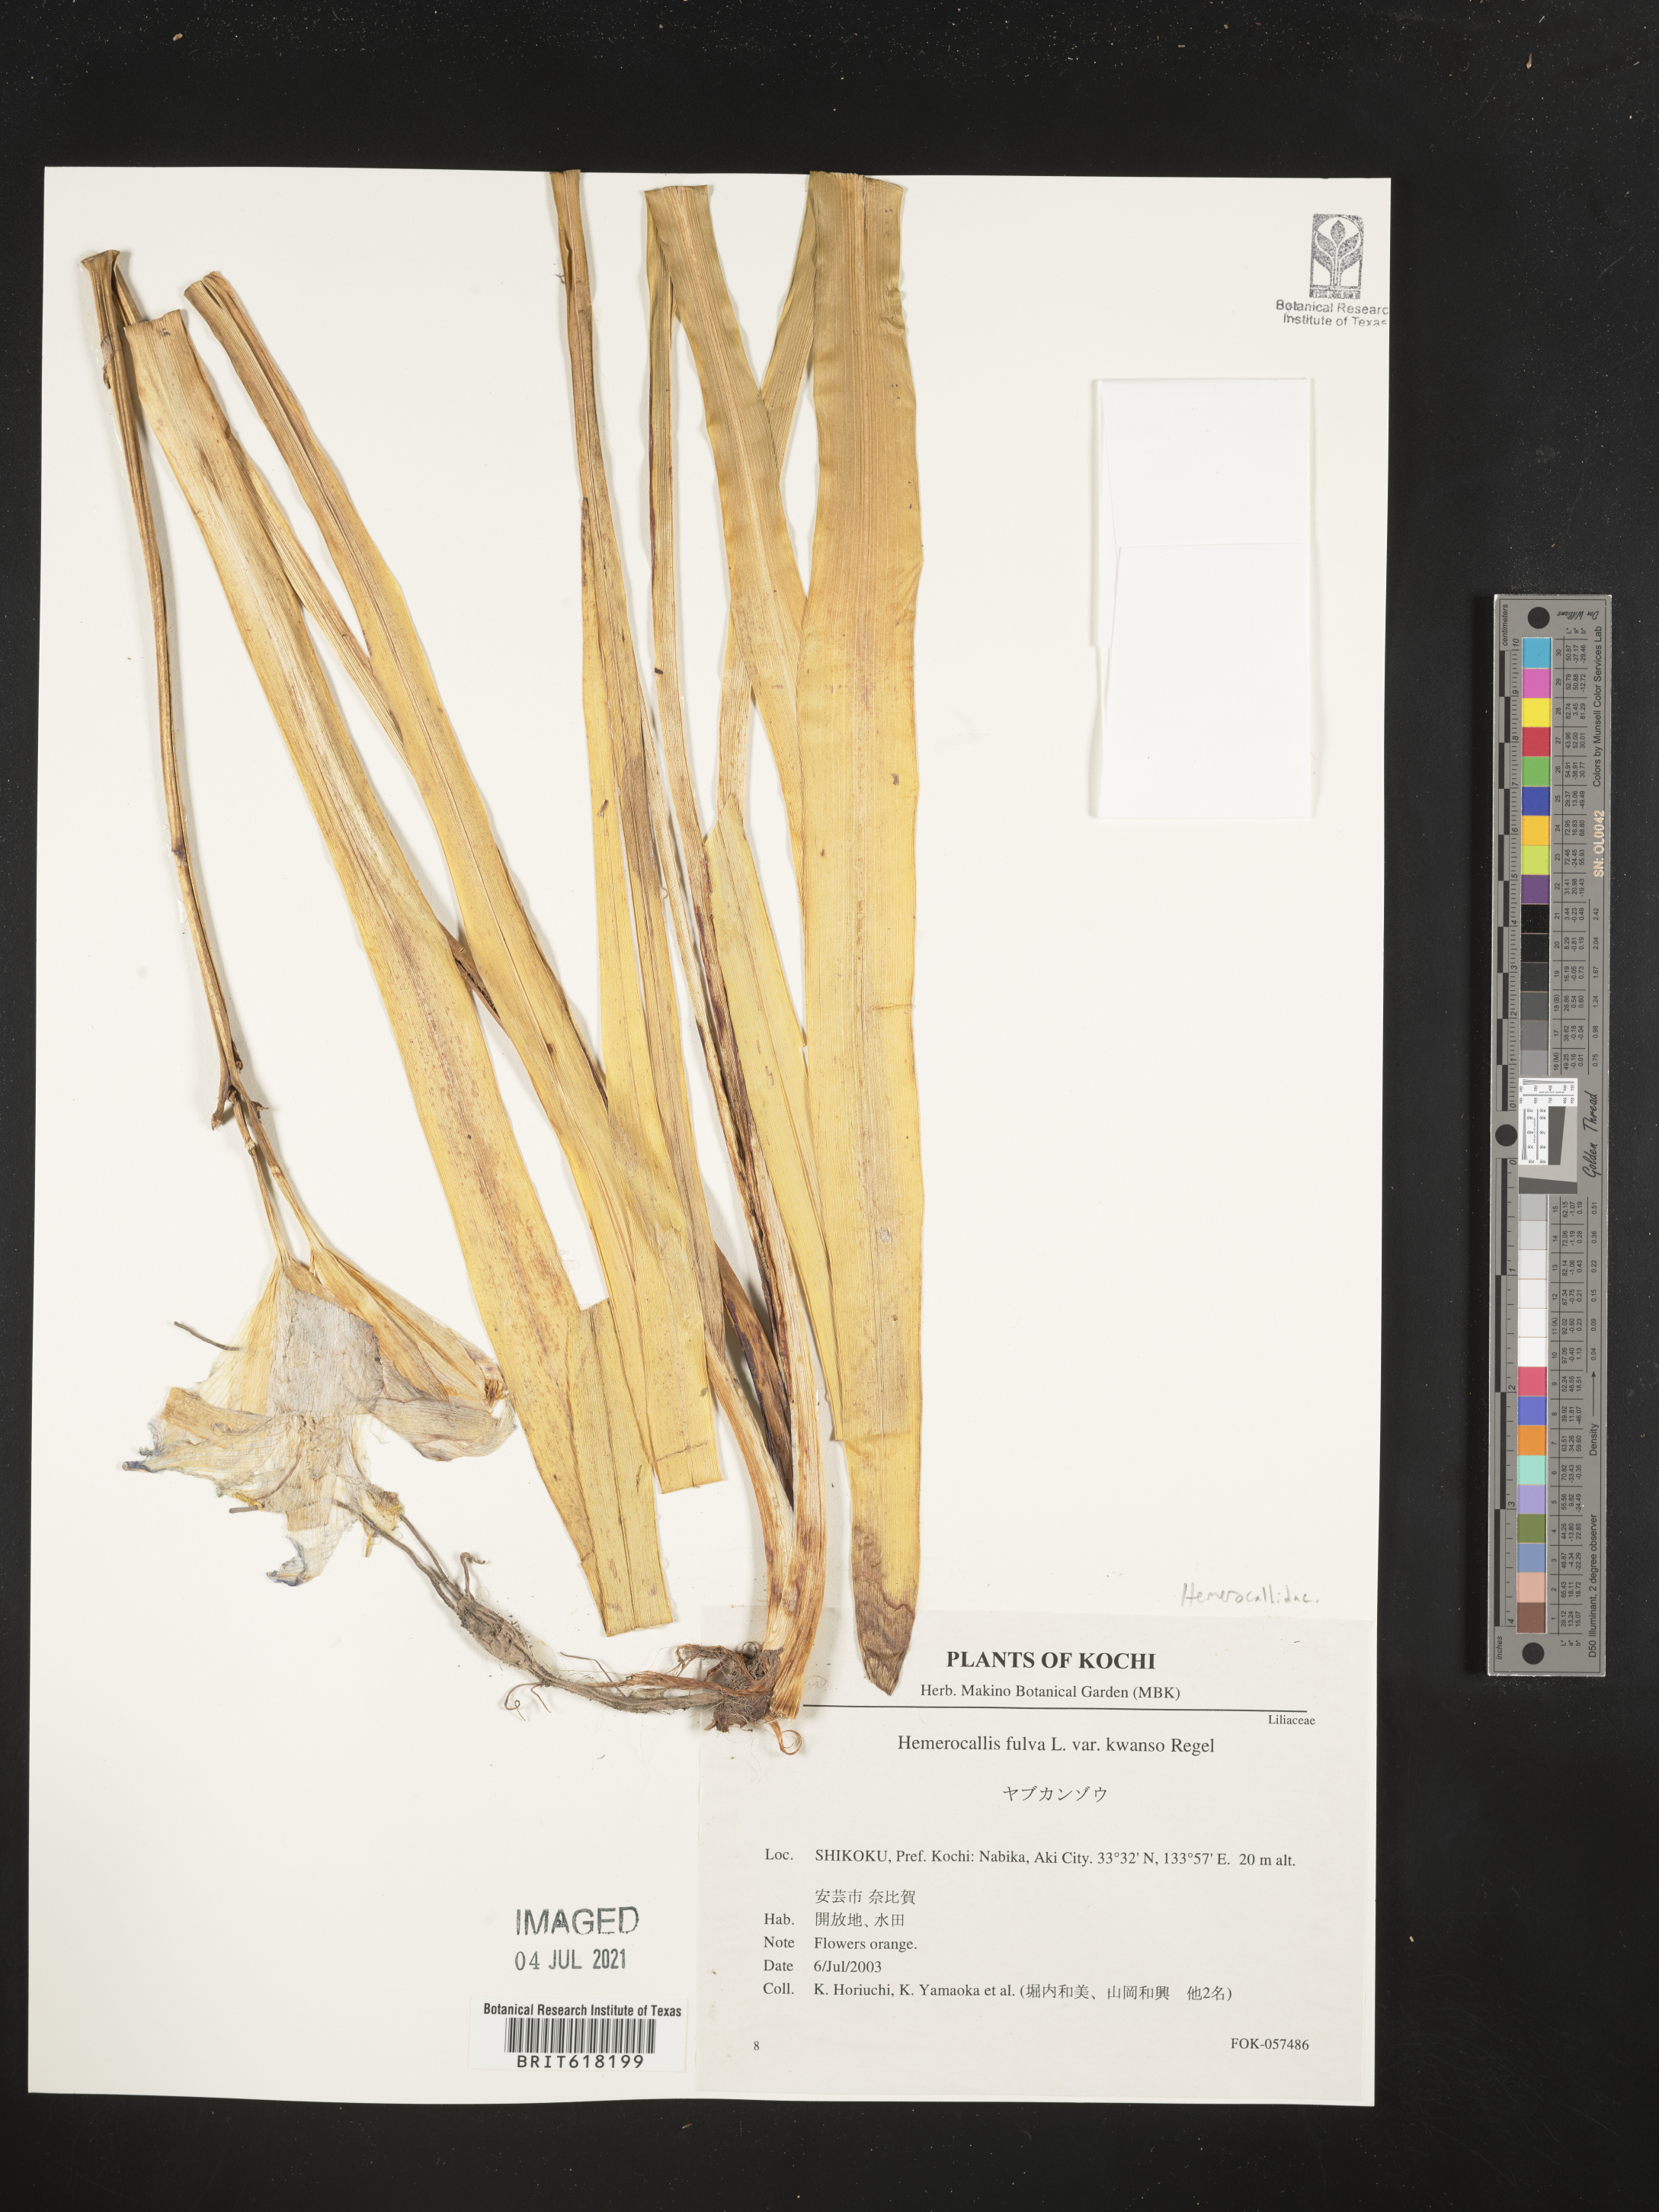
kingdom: Plantae
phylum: Tracheophyta
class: Liliopsida
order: Asparagales
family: Asphodelaceae
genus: Hemerocallis
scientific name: Hemerocallis fulva
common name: Orange day-lily
